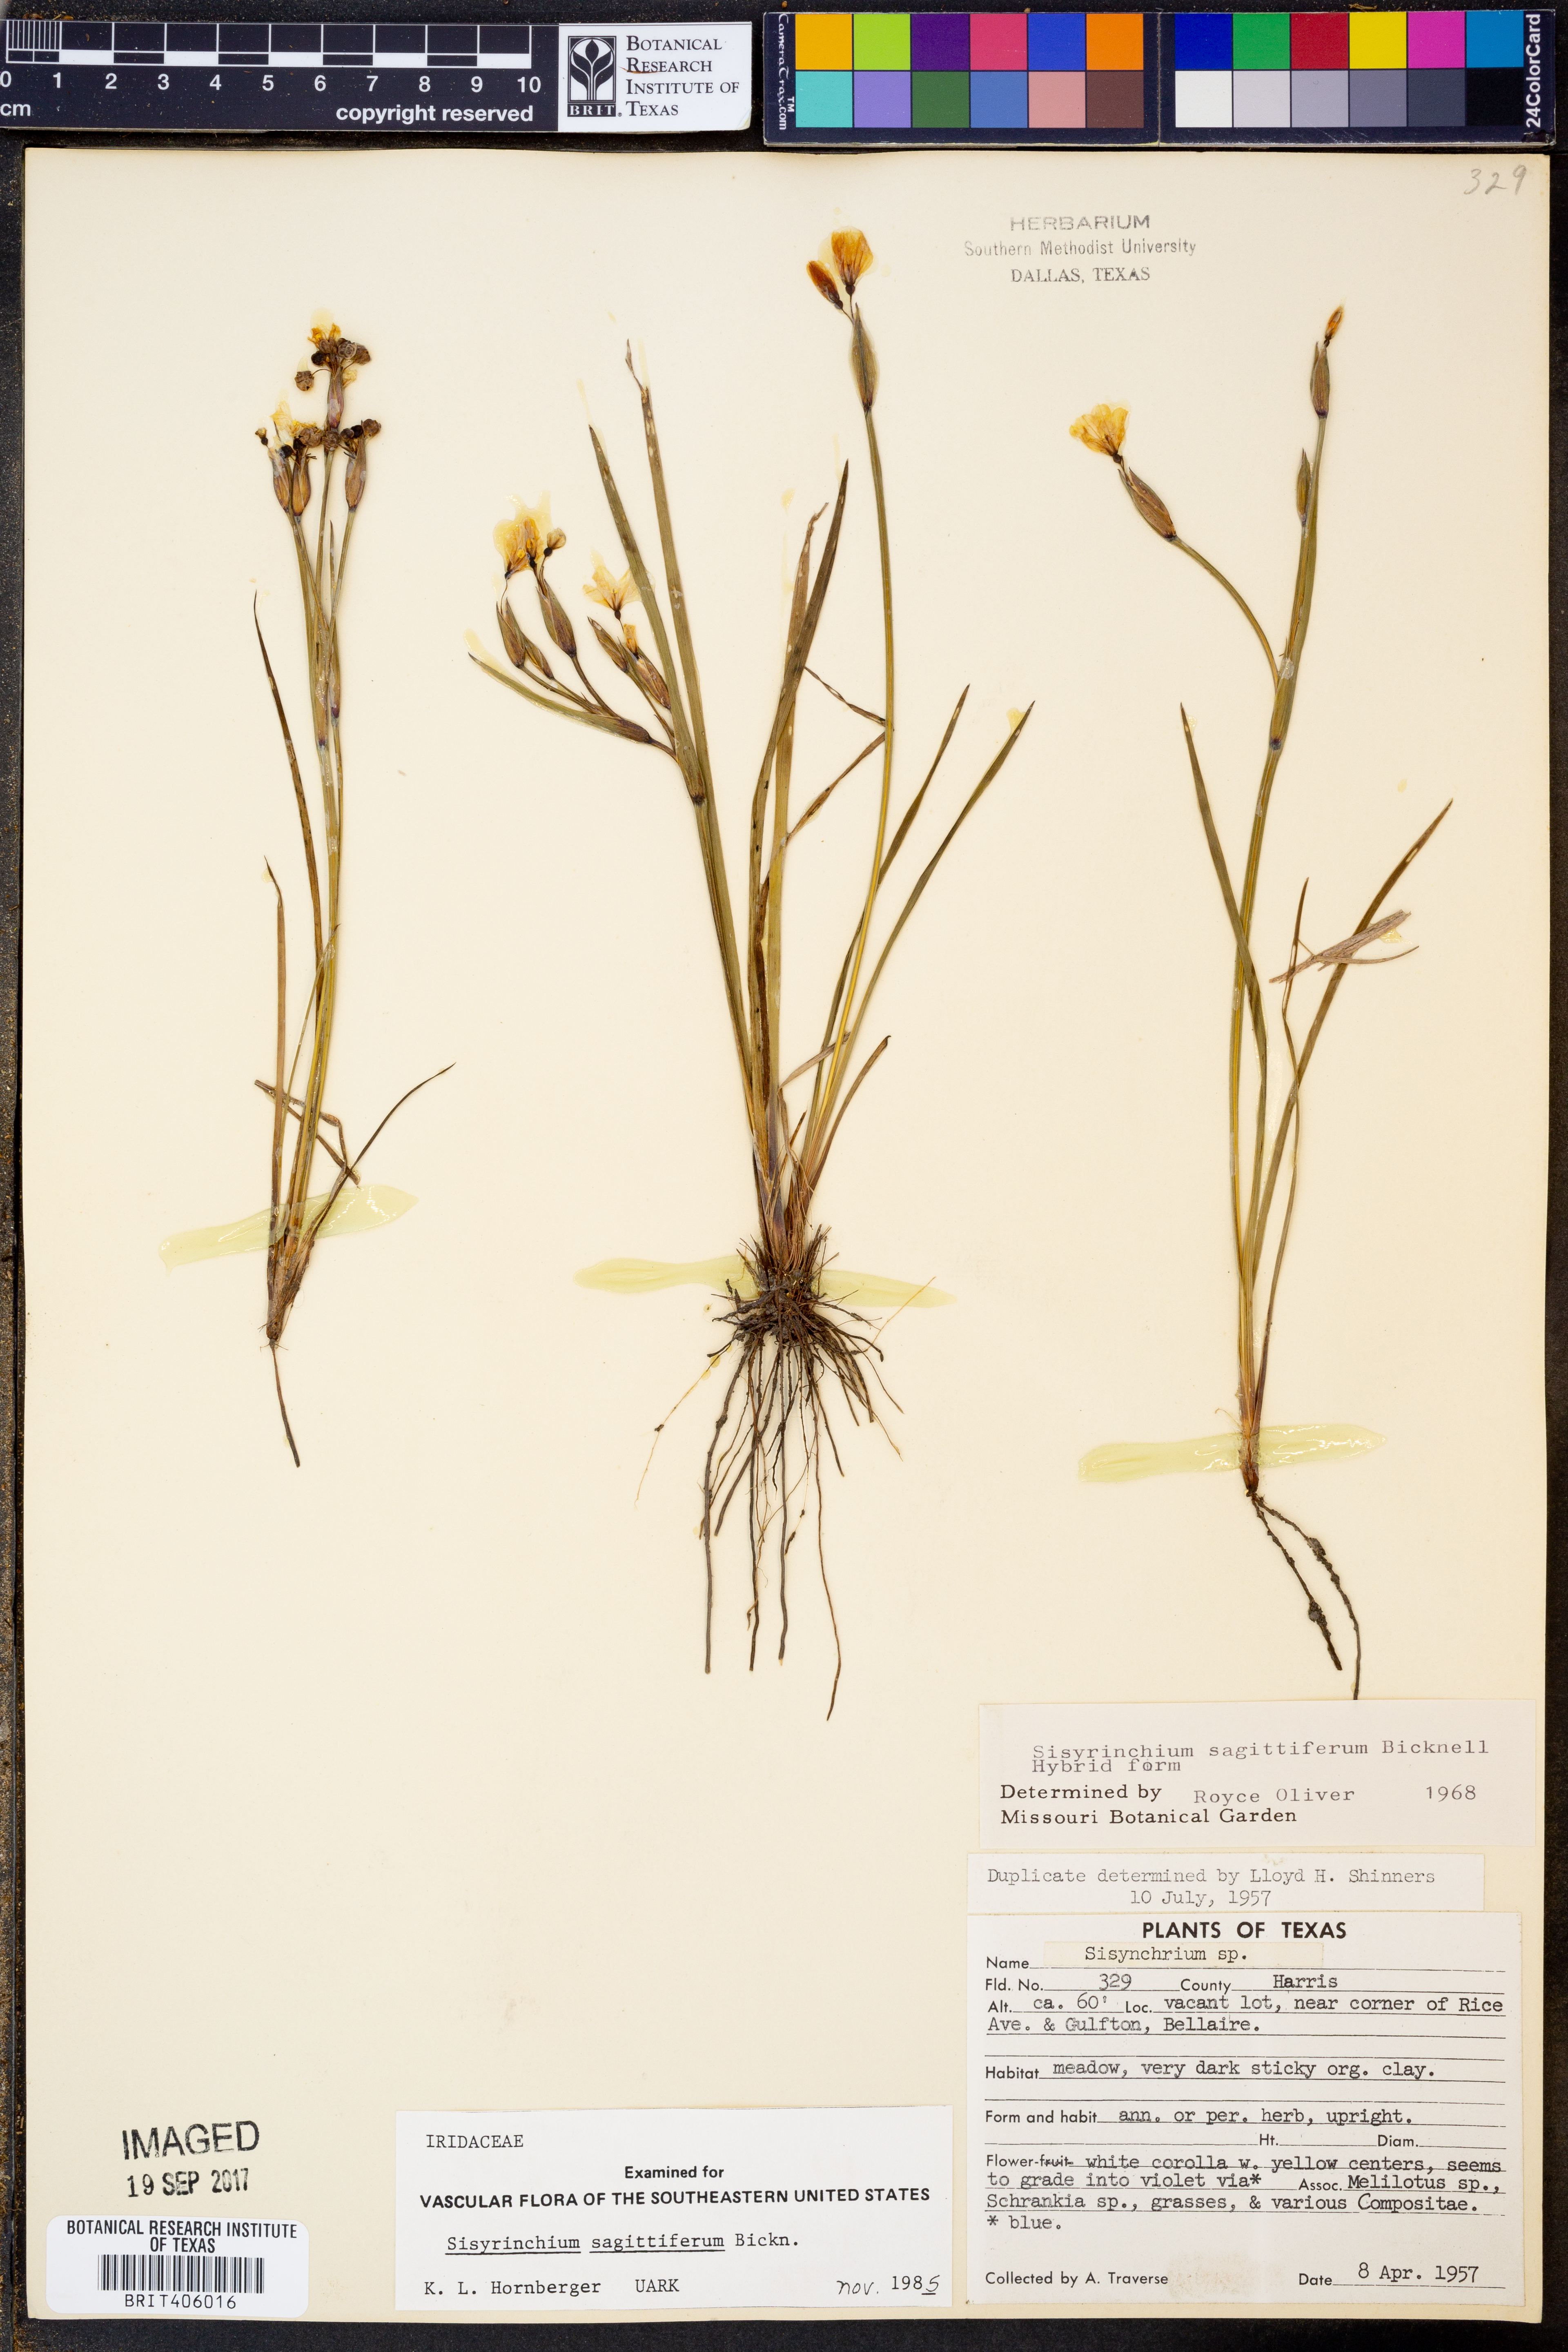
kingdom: Plantae
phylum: Tracheophyta
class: Liliopsida
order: Asparagales
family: Iridaceae
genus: Sisyrinchium
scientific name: Sisyrinchium sagittiferum
